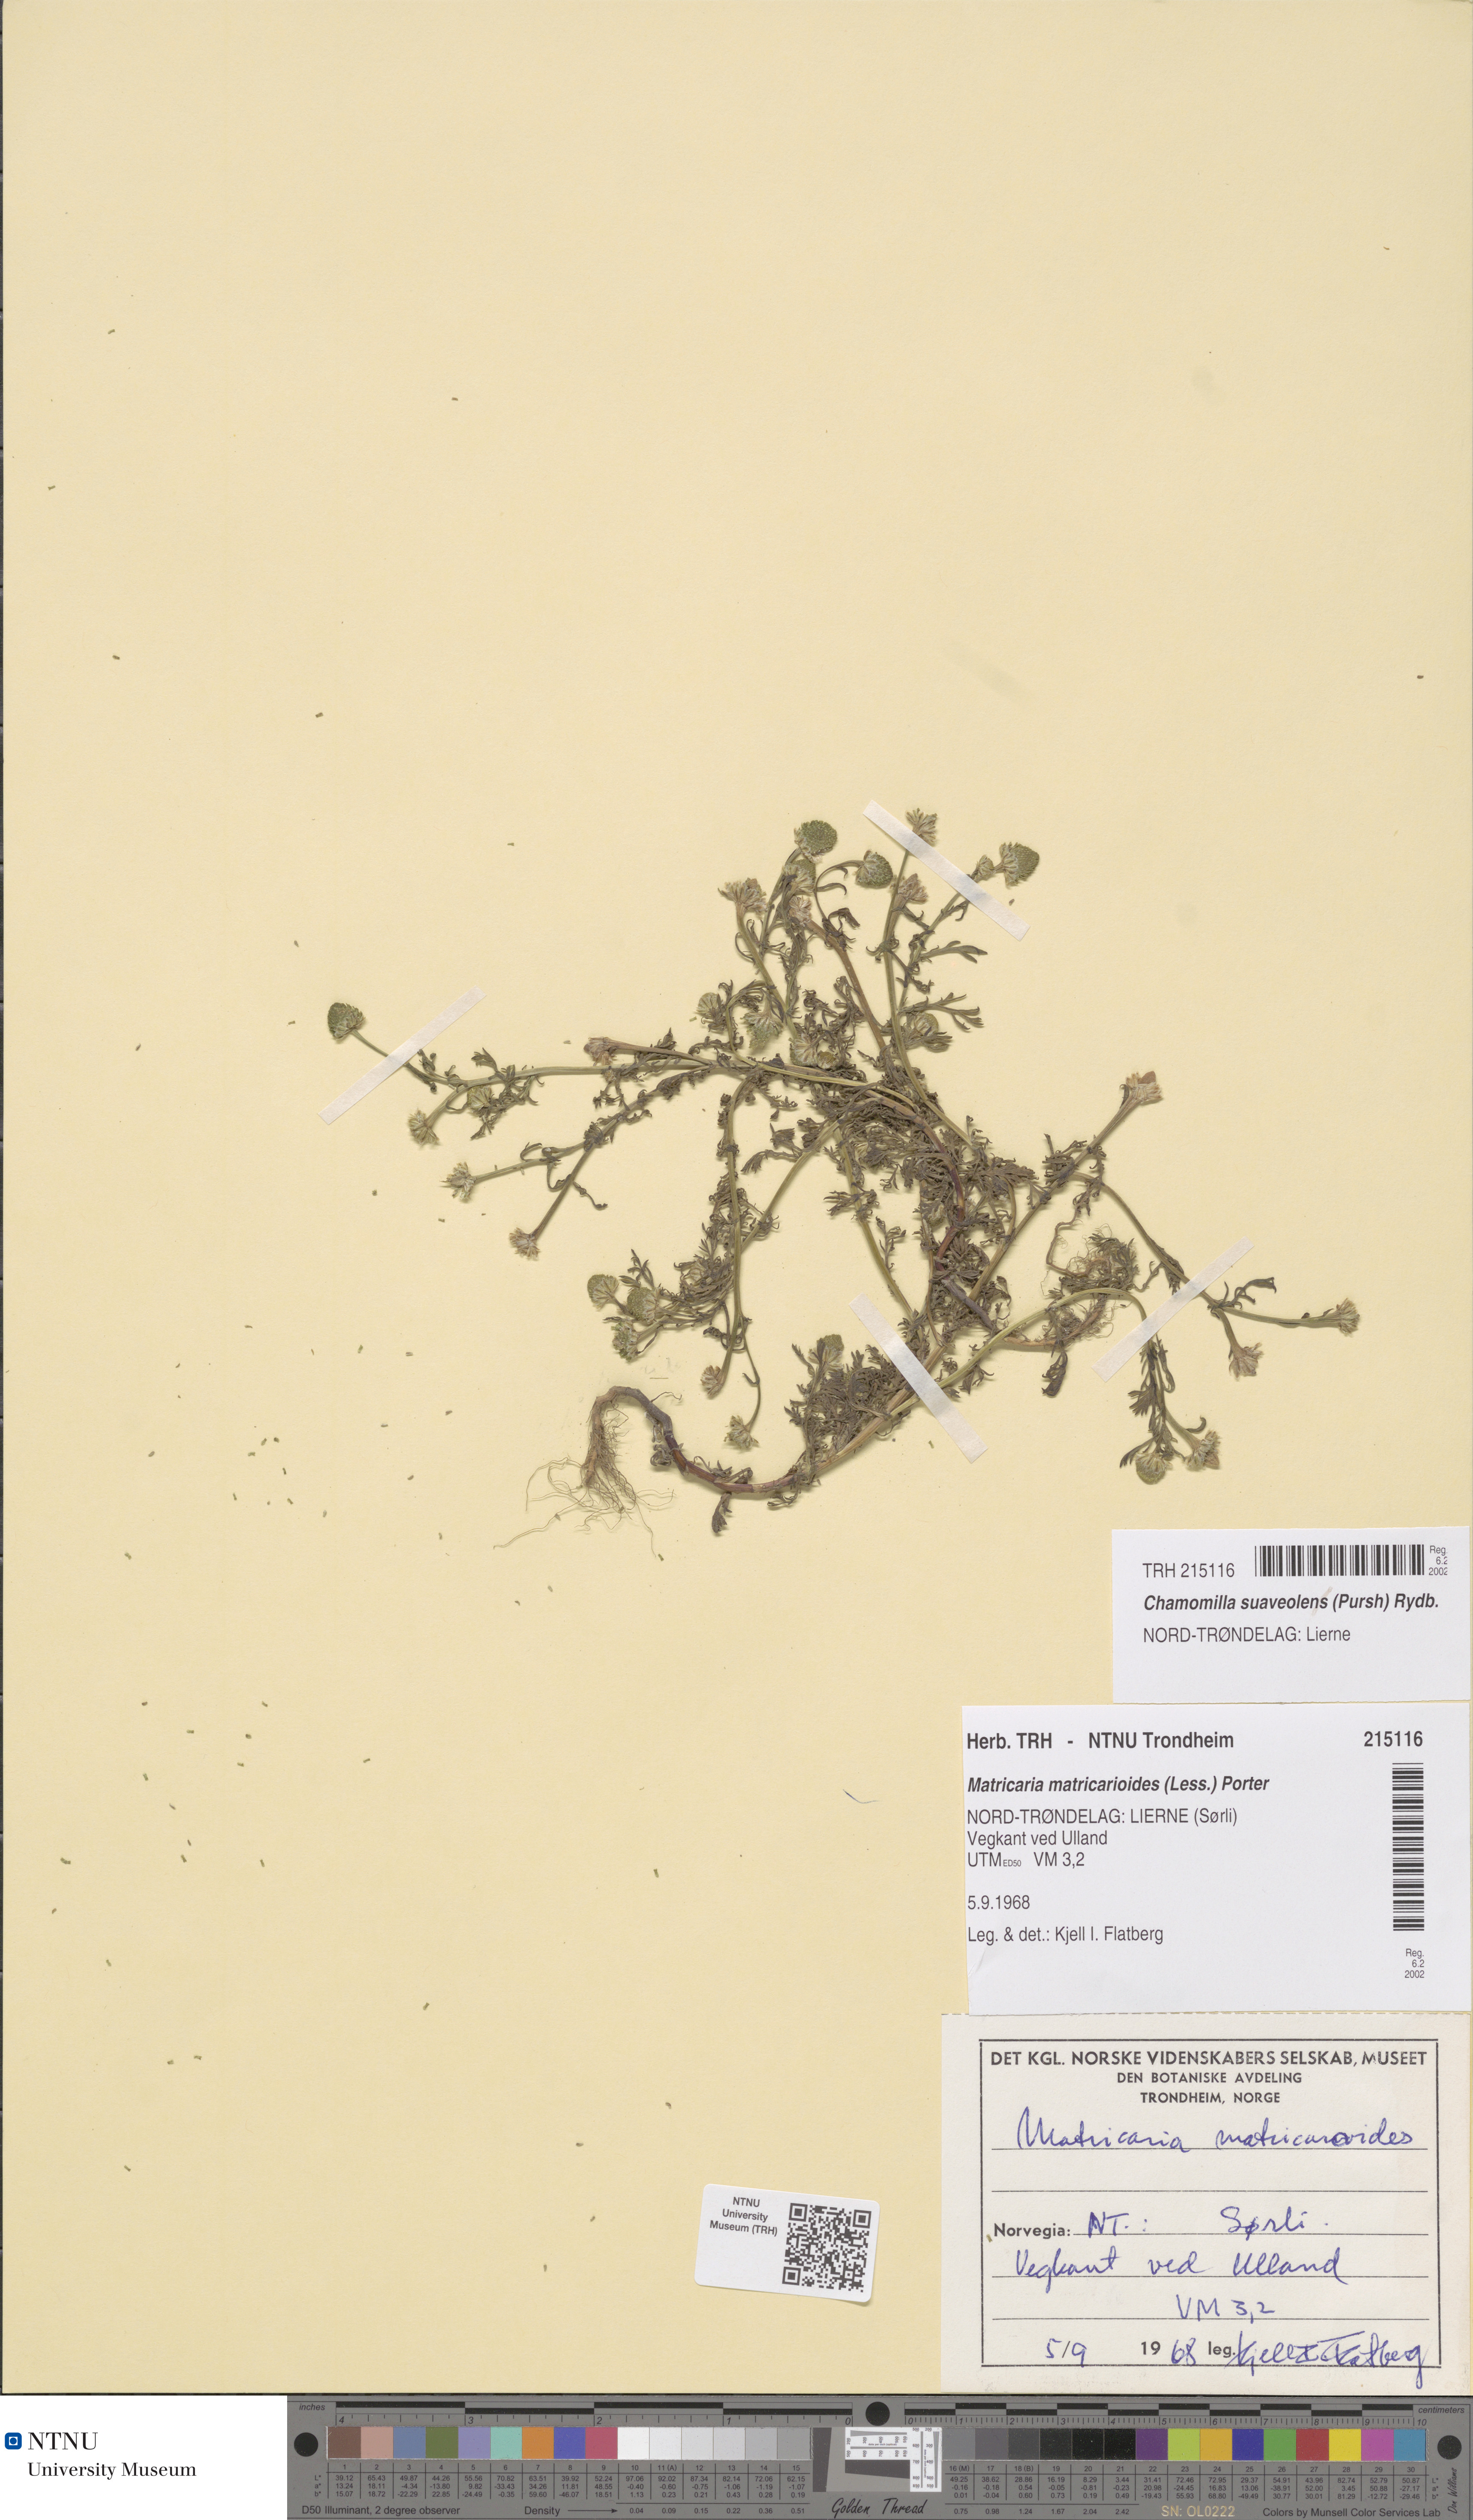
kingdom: Plantae
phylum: Tracheophyta
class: Magnoliopsida
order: Asterales
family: Asteraceae
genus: Matricaria
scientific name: Matricaria discoidea
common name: Disc mayweed
